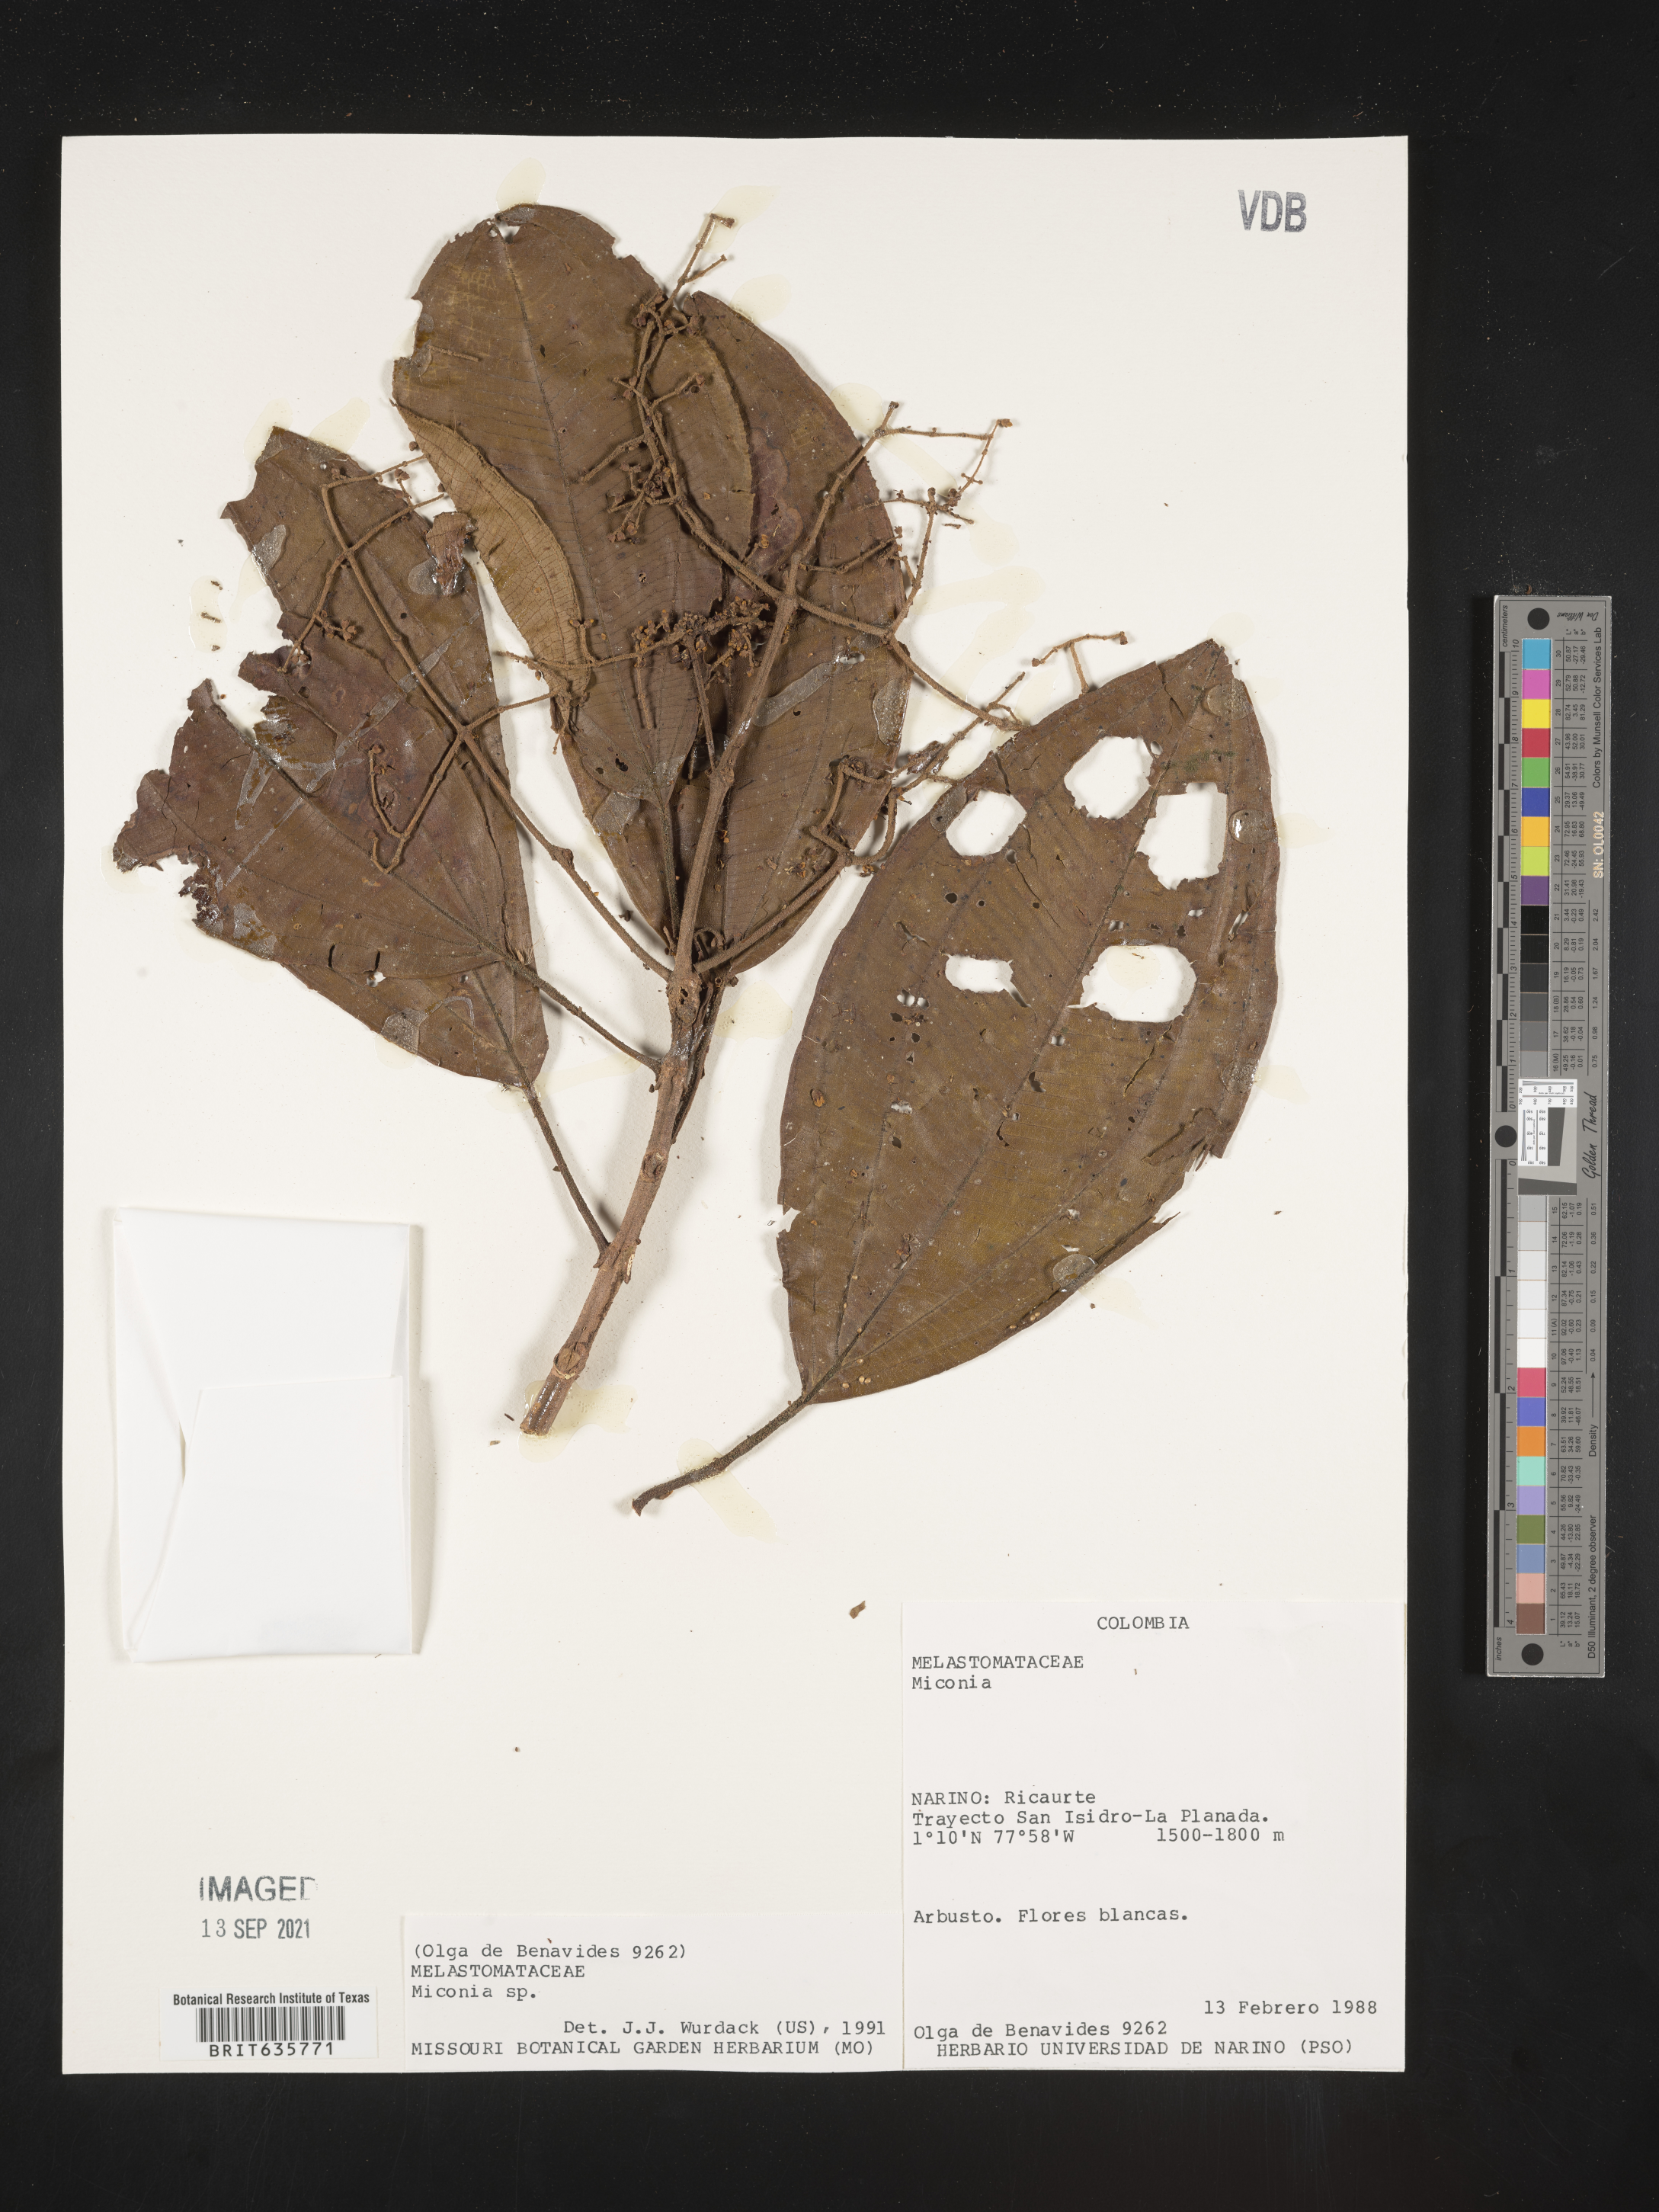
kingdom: Plantae
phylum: Tracheophyta
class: Magnoliopsida
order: Myrtales
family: Melastomataceae
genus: Miconia
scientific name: Miconia
